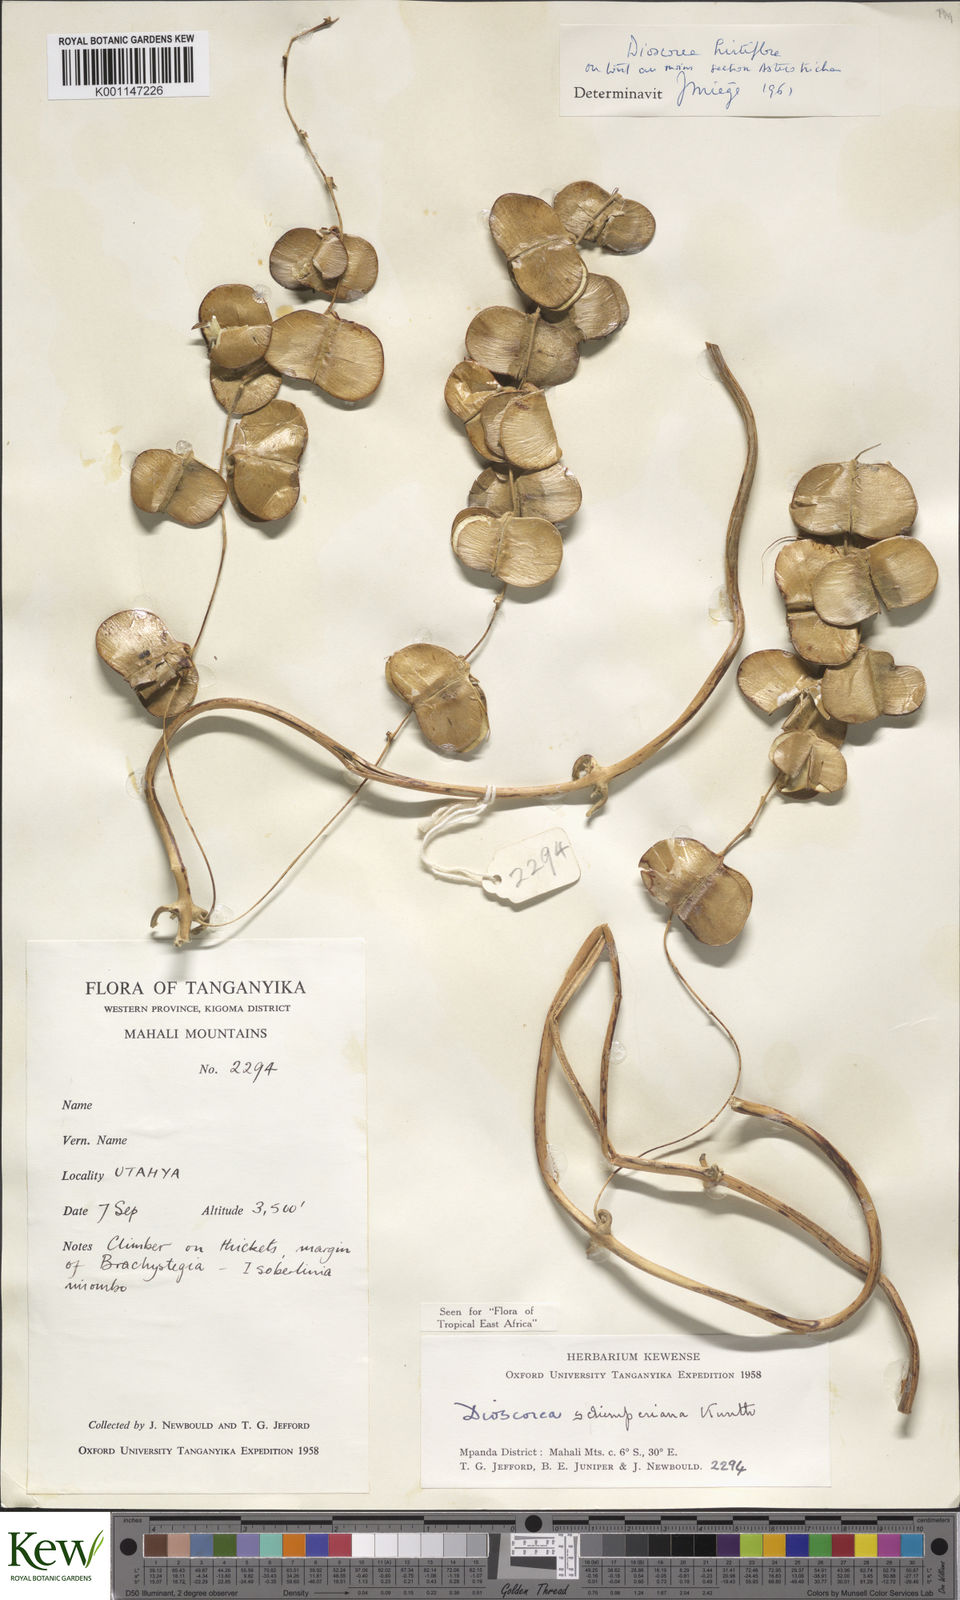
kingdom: Plantae
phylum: Tracheophyta
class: Liliopsida
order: Dioscoreales
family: Dioscoreaceae
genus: Dioscorea
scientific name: Dioscorea schimperiana
